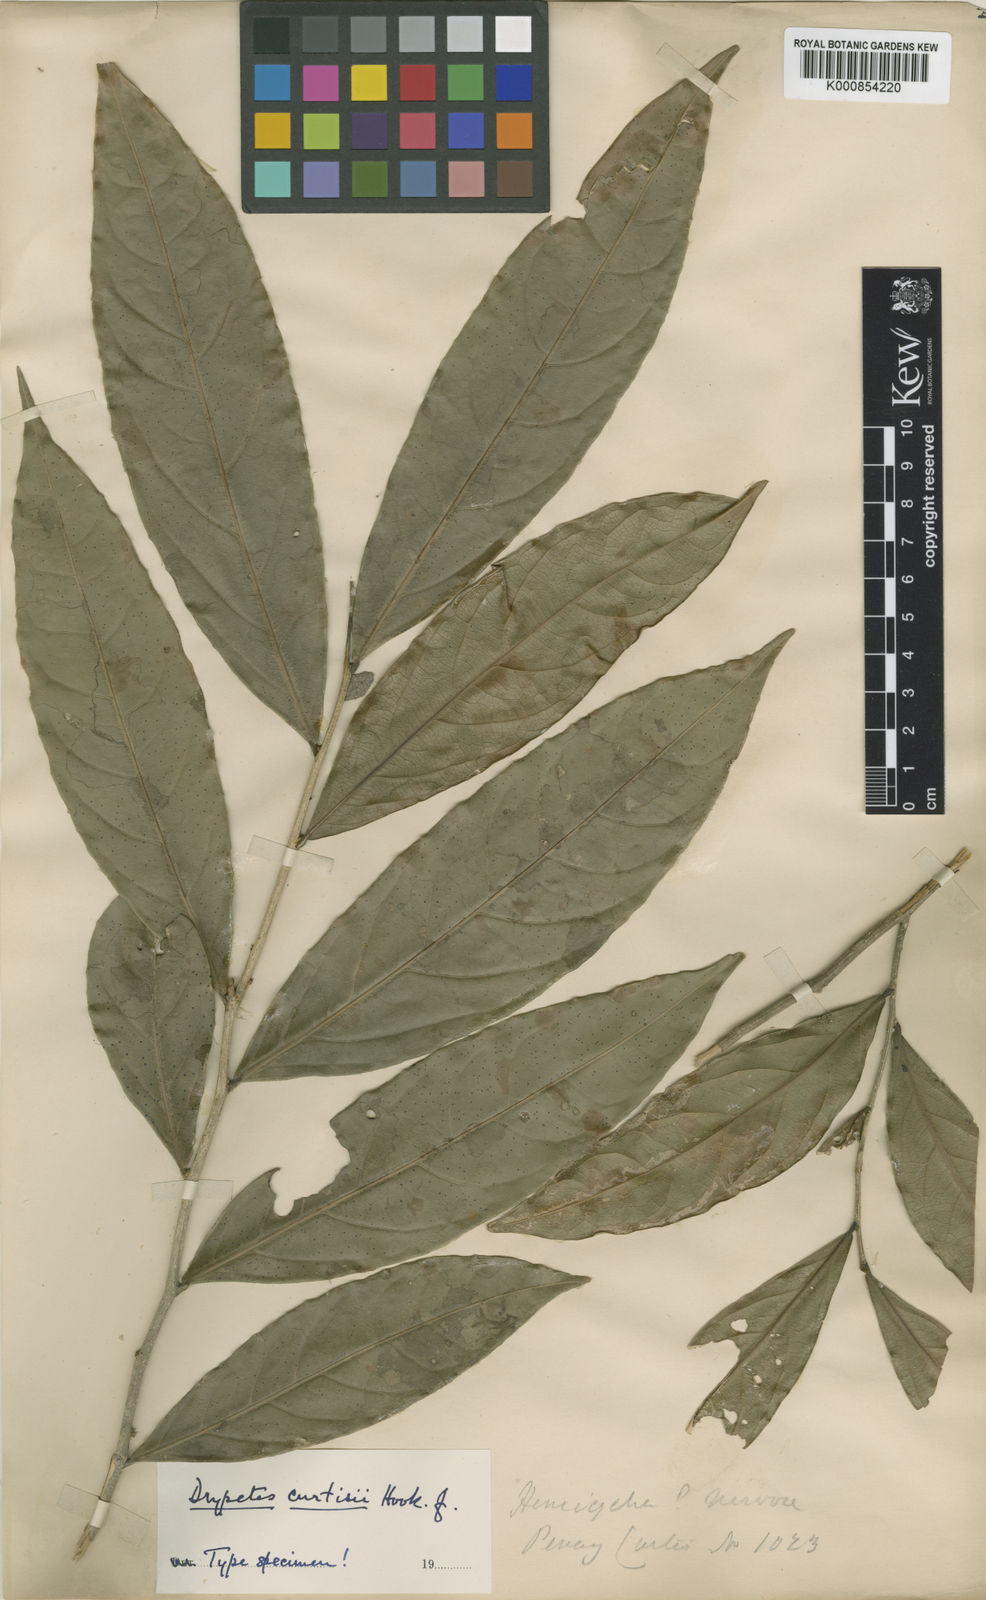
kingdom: Plantae
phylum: Tracheophyta
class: Magnoliopsida
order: Malpighiales
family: Putranjivaceae
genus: Drypetes
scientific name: Drypetes curtisii
